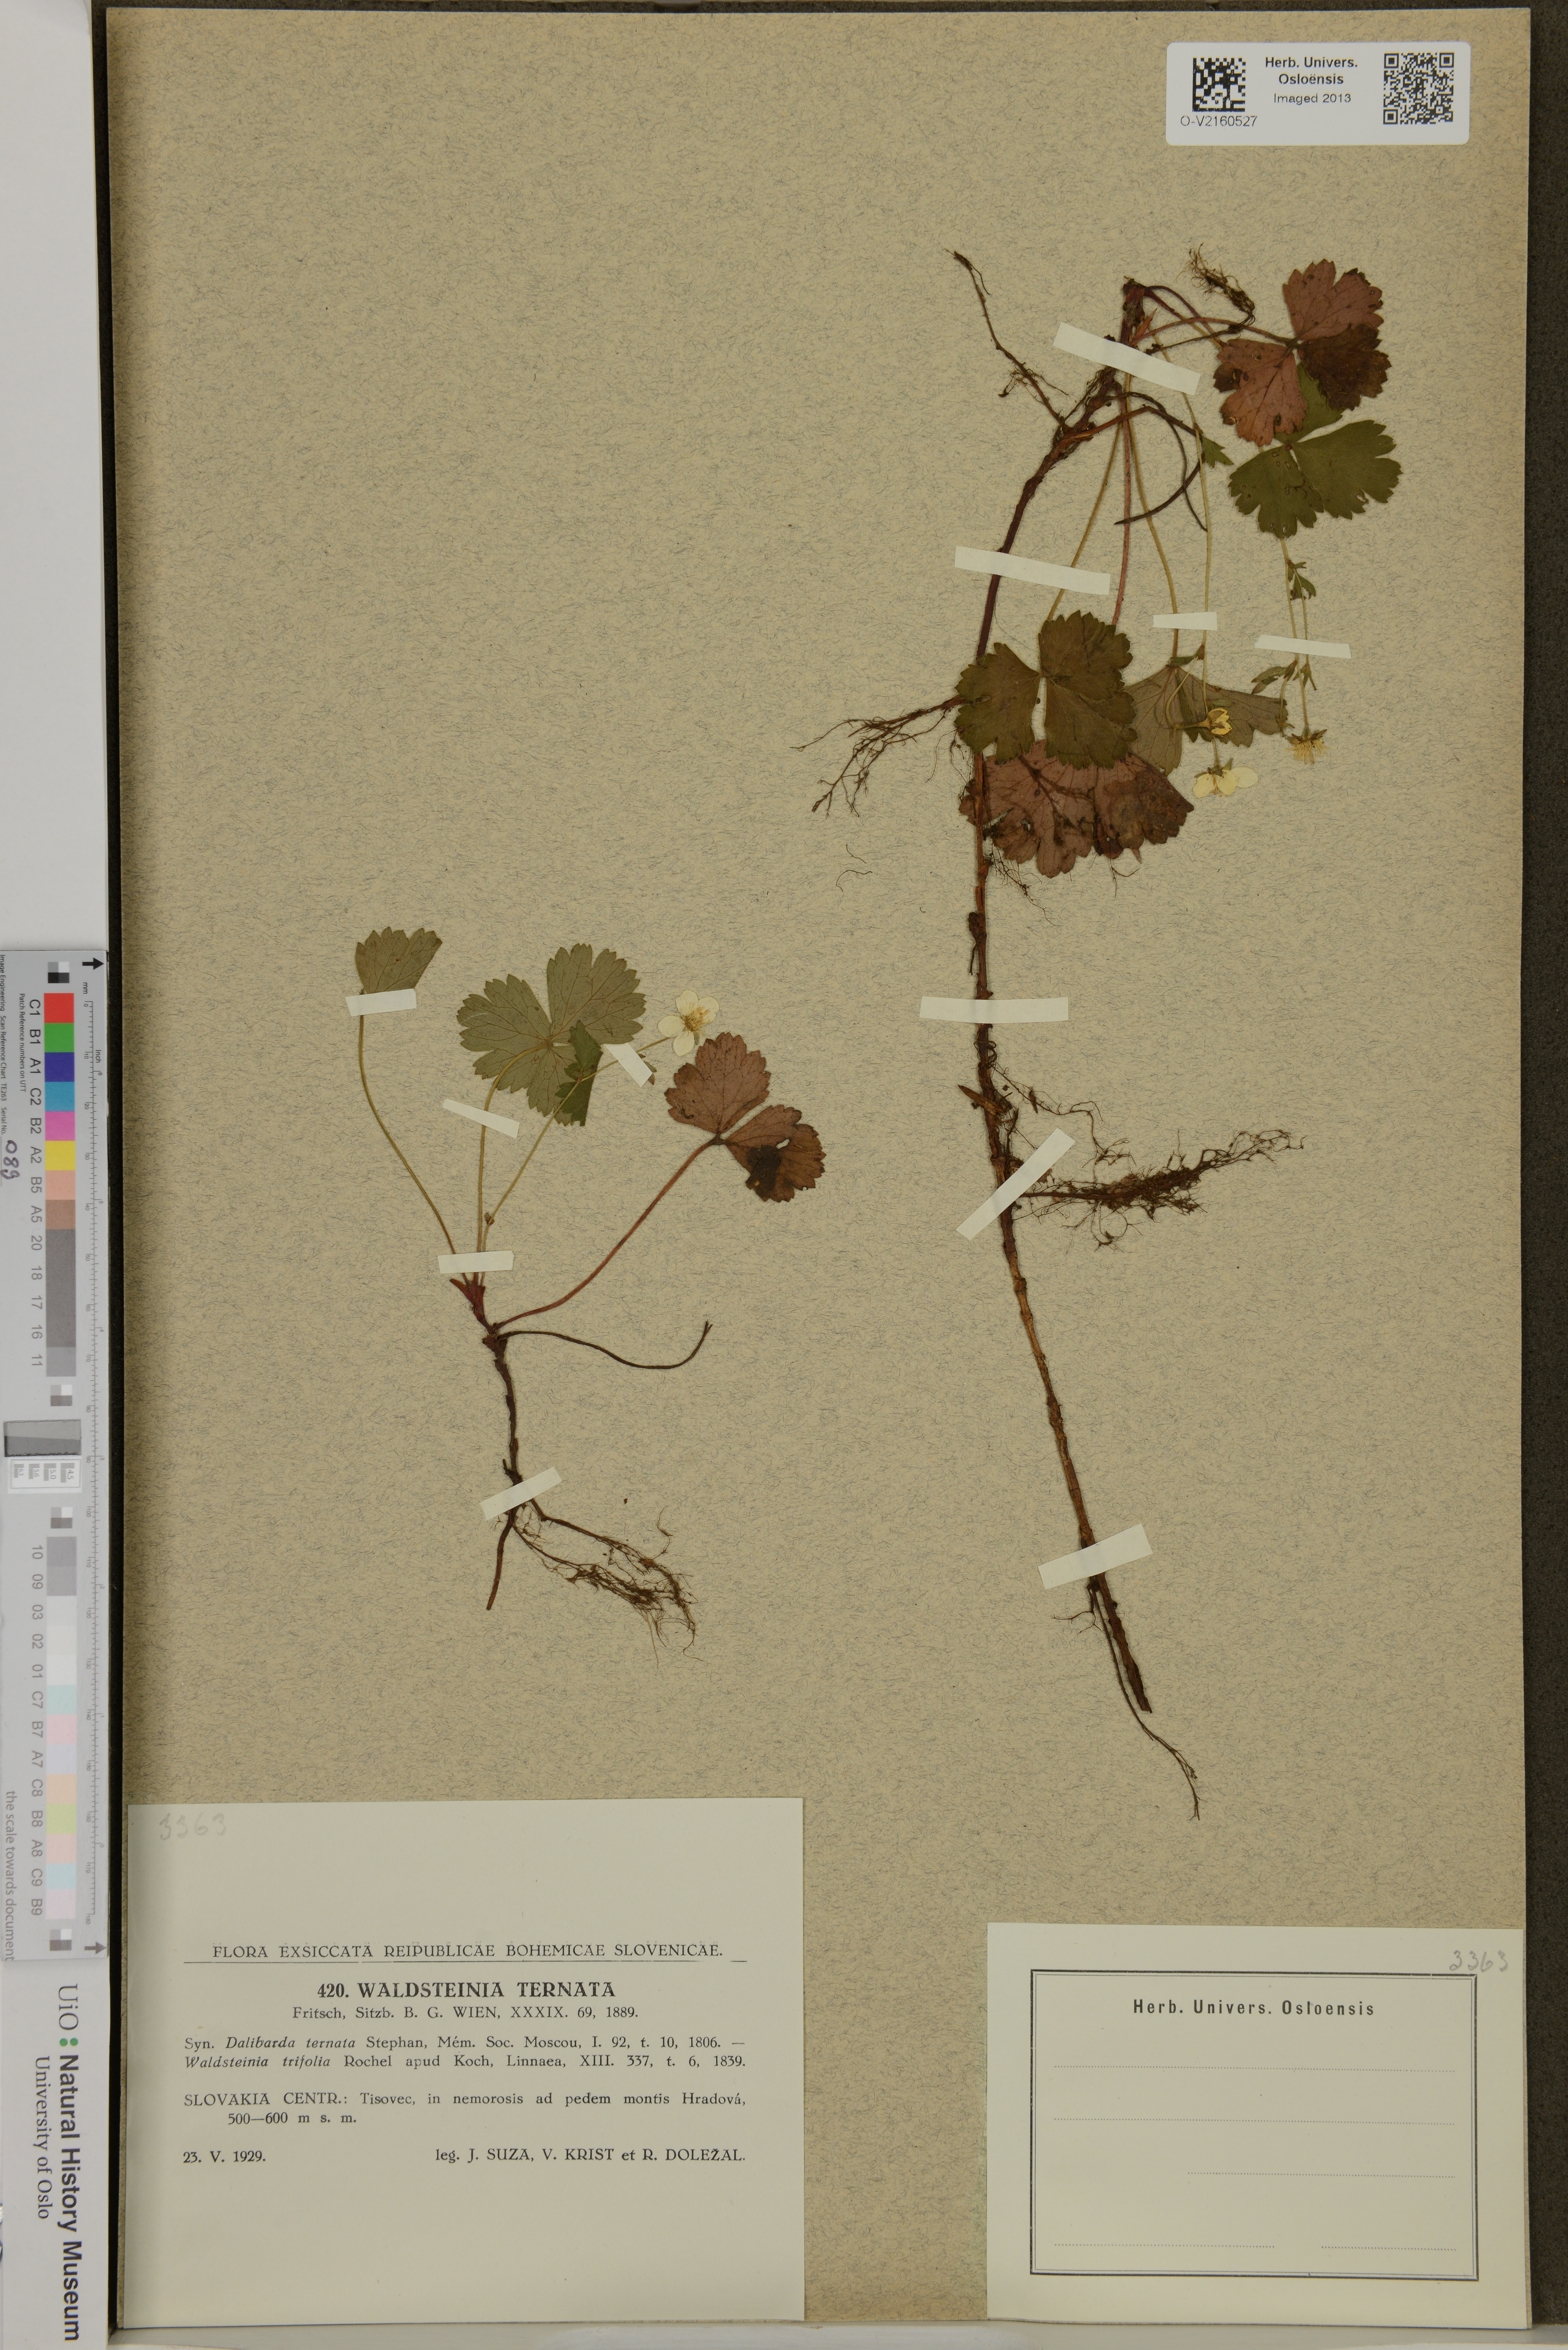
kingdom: Plantae
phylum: Tracheophyta
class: Magnoliopsida
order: Rosales
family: Rosaceae
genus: Geum
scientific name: Geum ternatum
